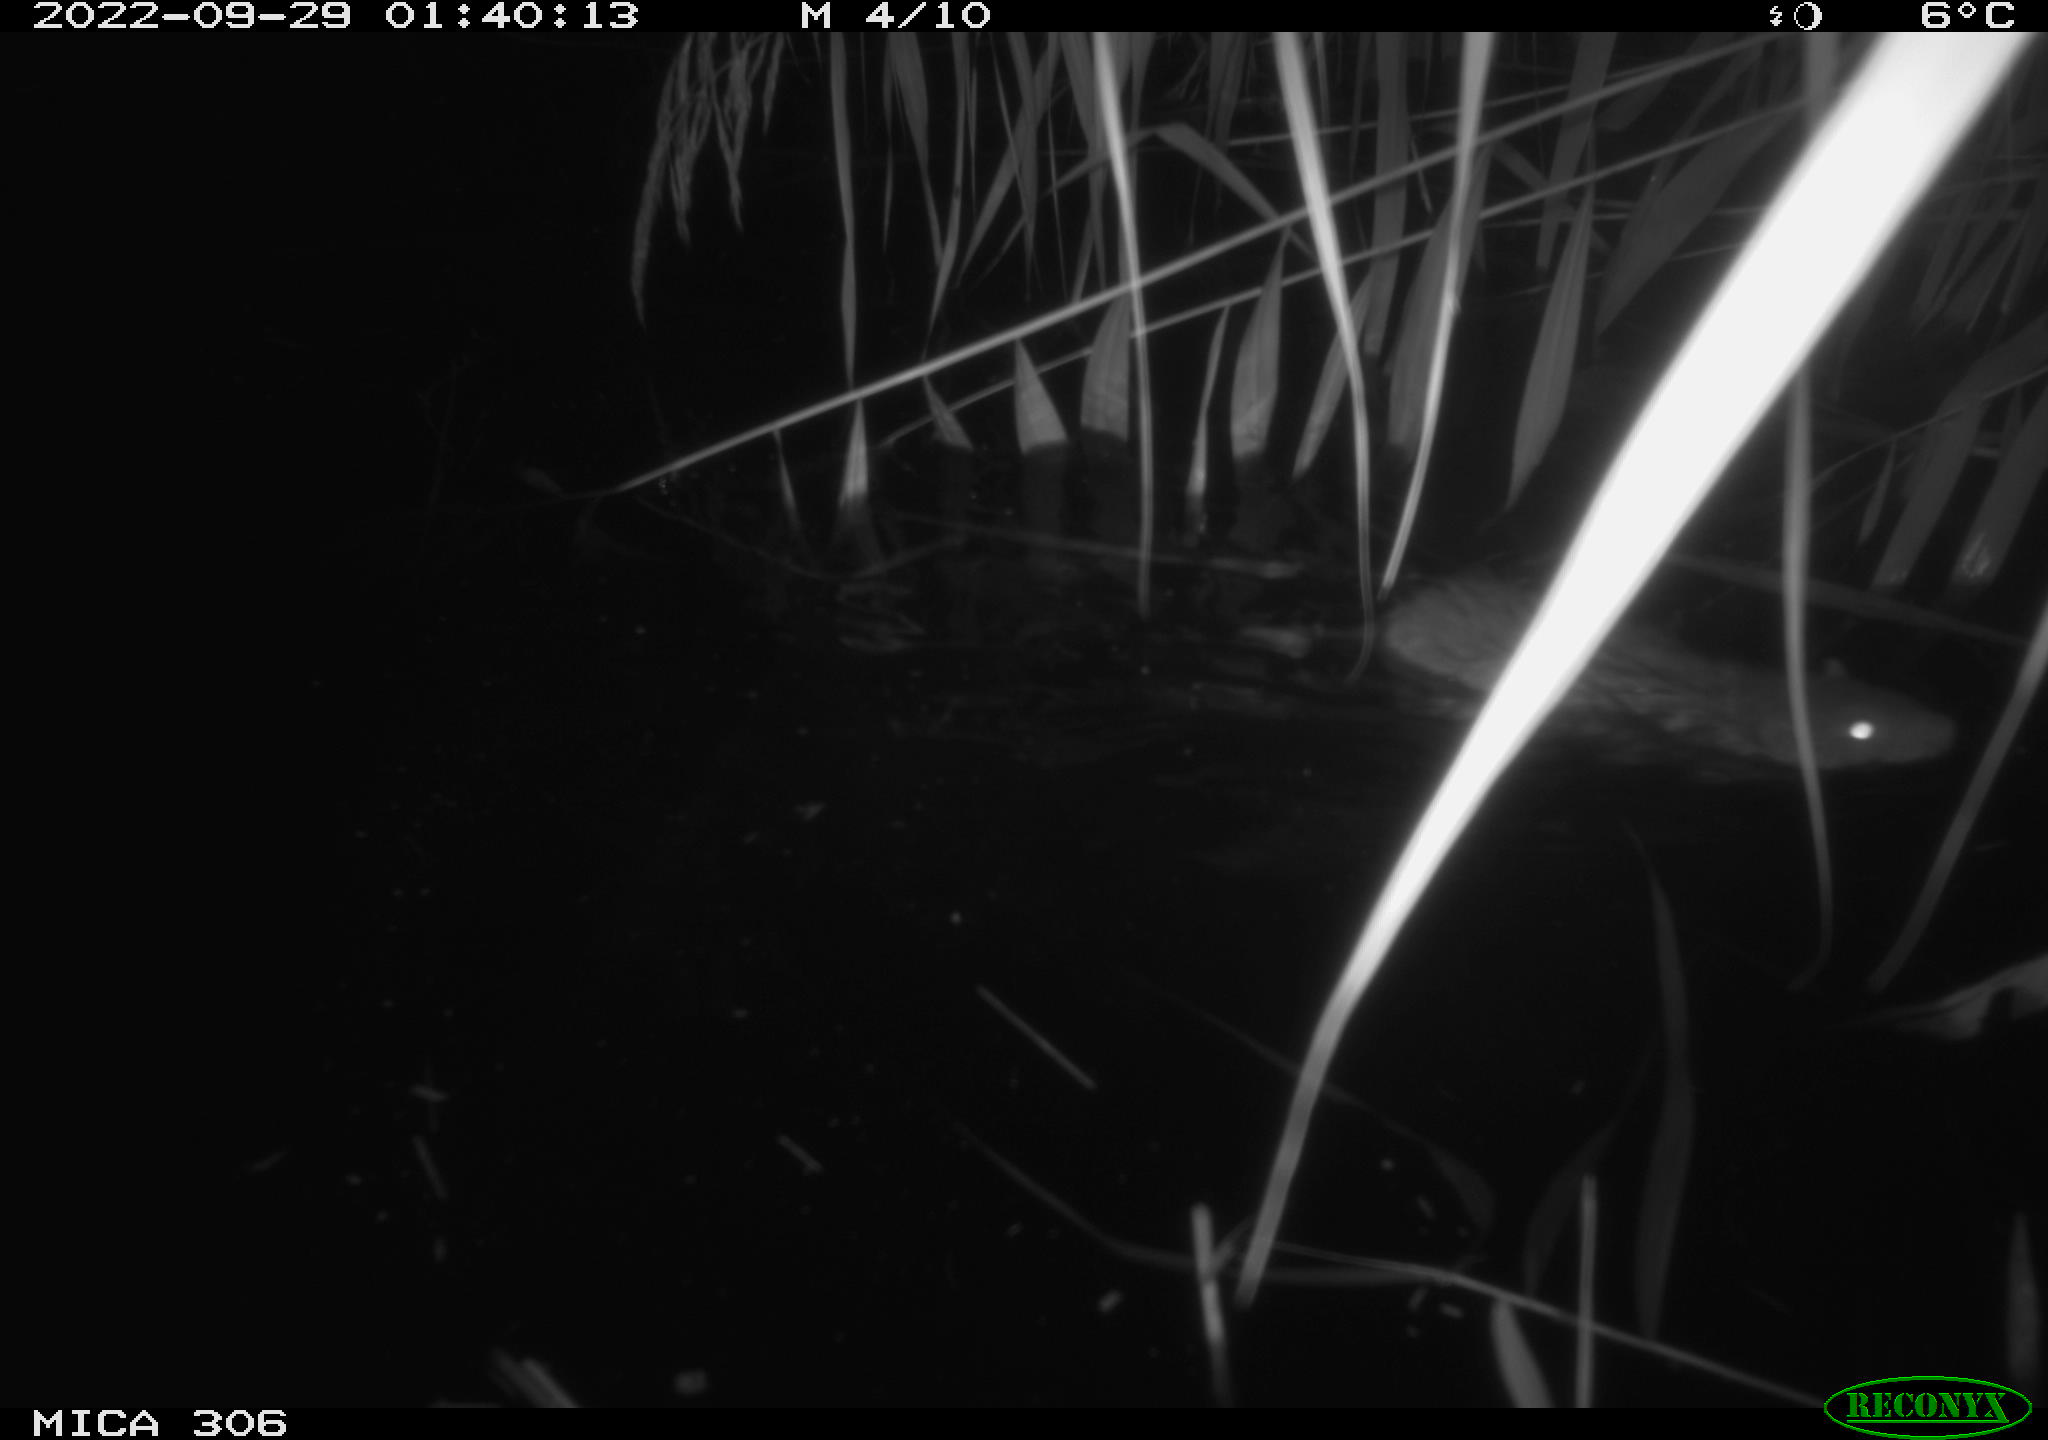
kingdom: Animalia
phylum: Chordata
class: Mammalia
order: Rodentia
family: Muridae
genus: Rattus
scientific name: Rattus norvegicus
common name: Brown rat
